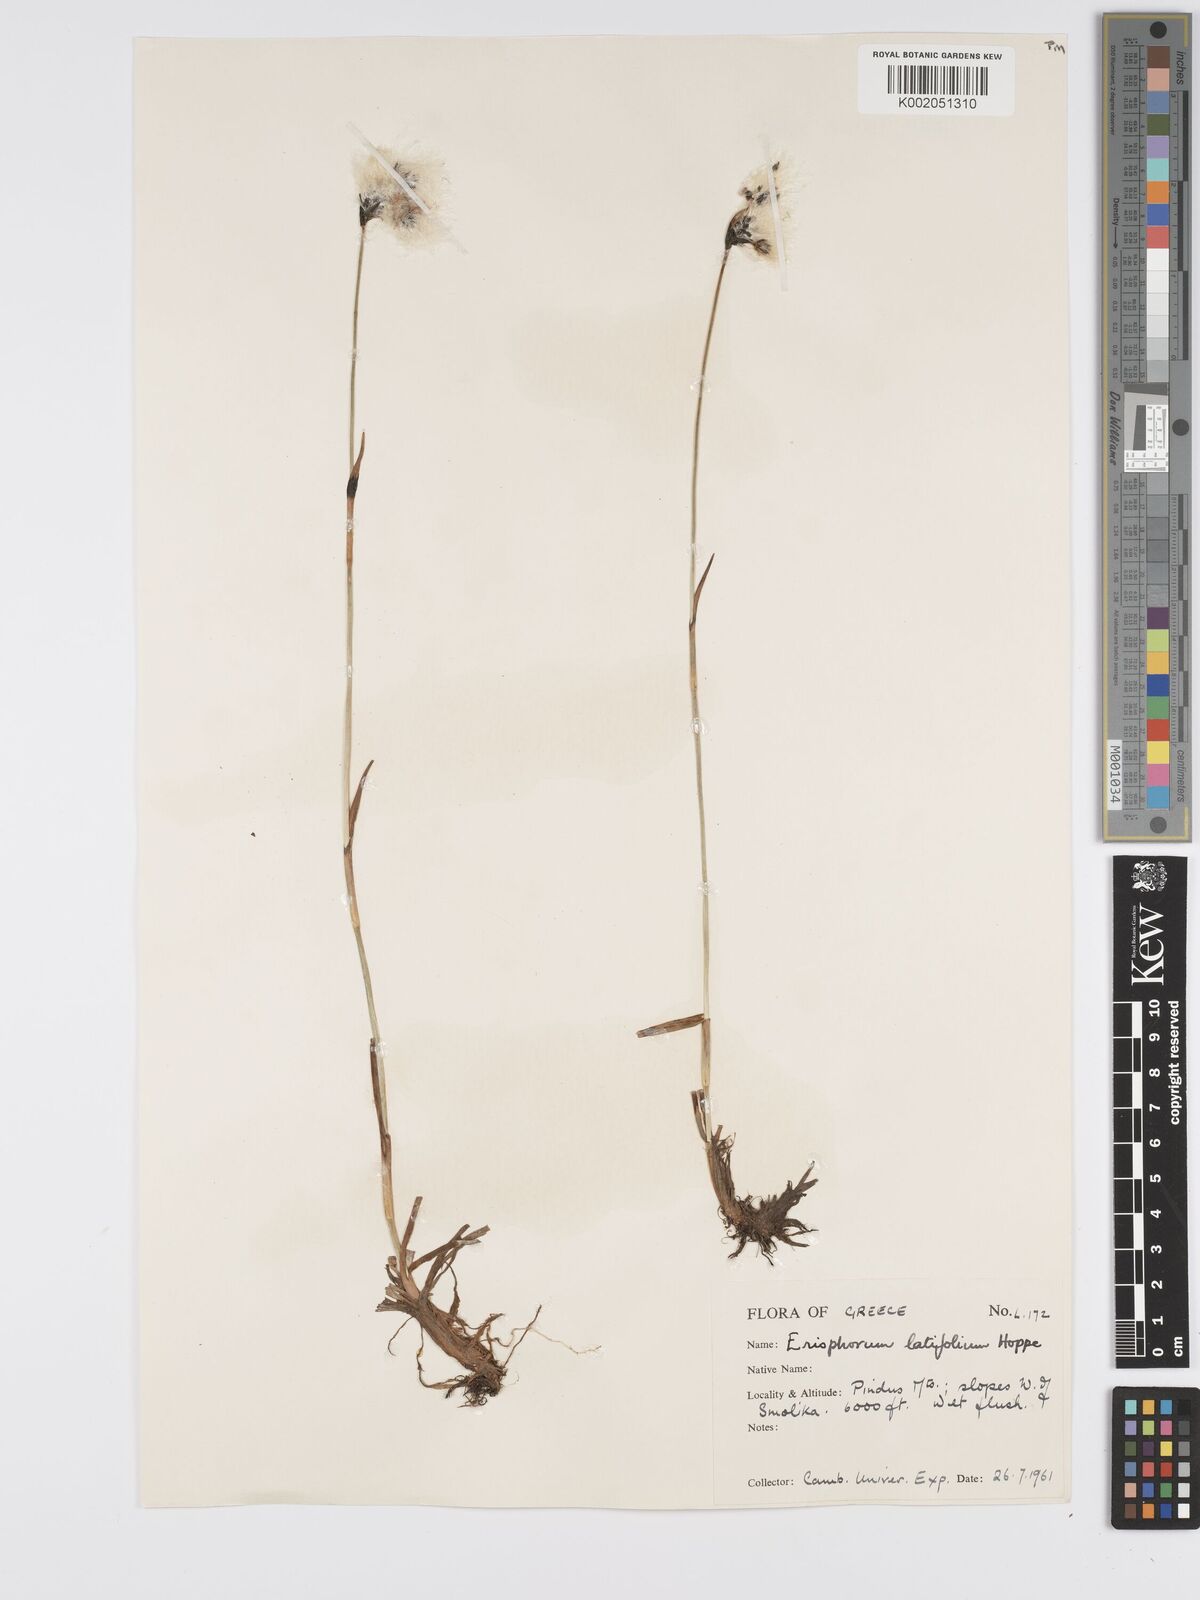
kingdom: Plantae
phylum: Tracheophyta
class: Liliopsida
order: Poales
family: Cyperaceae
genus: Eriophorum
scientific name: Eriophorum latifolium
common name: Broad-leaved cottongrass
